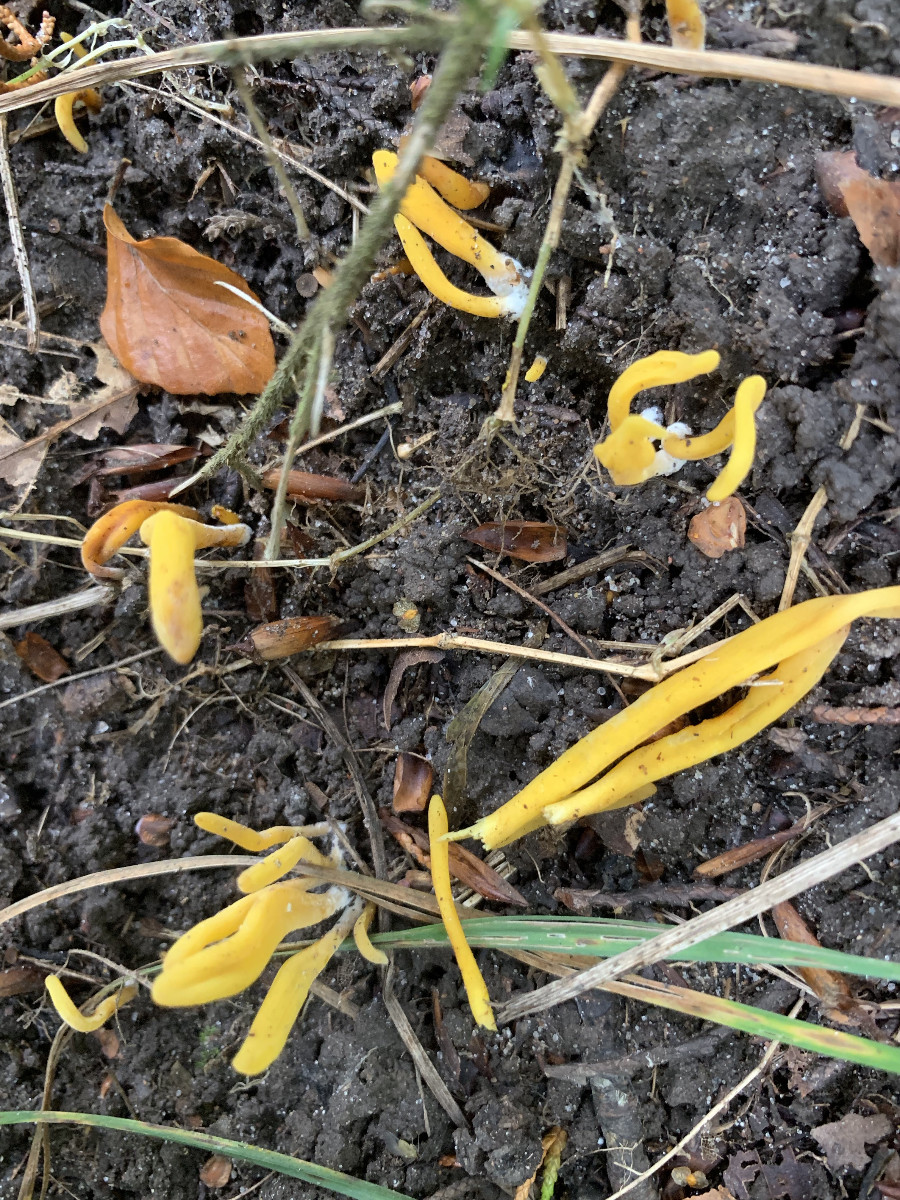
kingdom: Fungi
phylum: Basidiomycota
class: Agaricomycetes
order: Agaricales
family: Clavariaceae
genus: Clavulinopsis
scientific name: Clavulinopsis laeticolor
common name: flamme-køllesvamp
